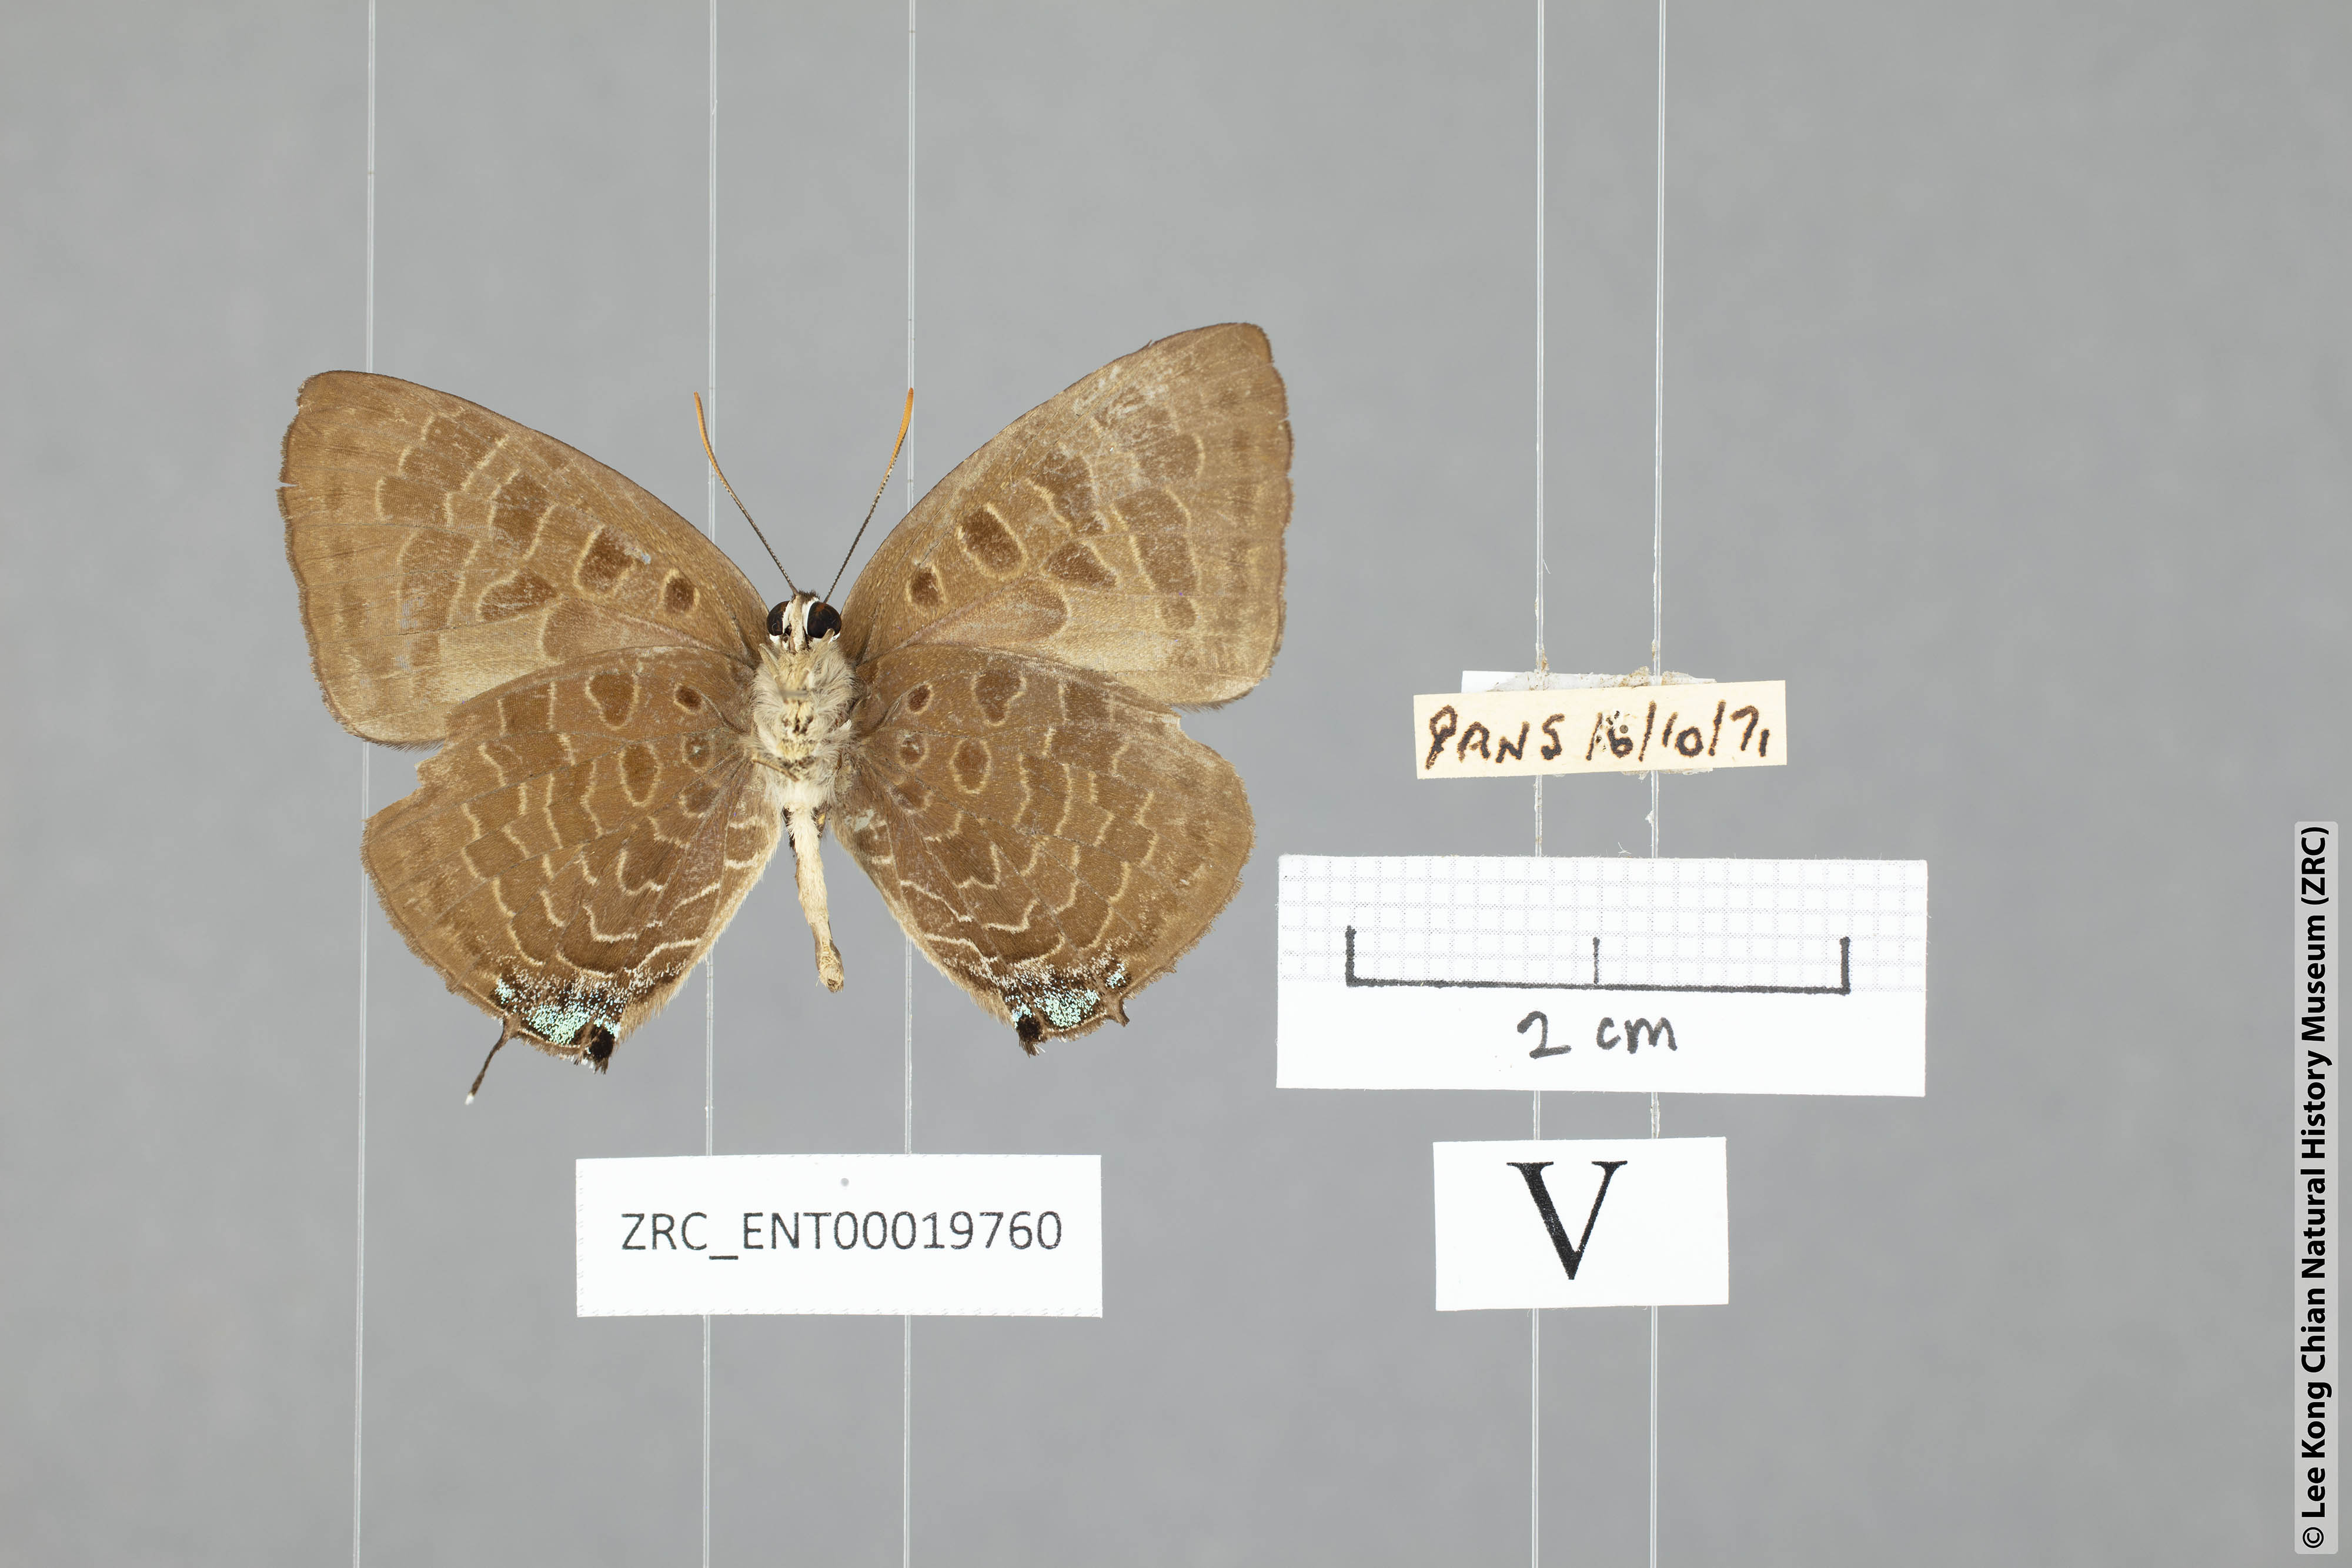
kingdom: Animalia
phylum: Arthropoda
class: Insecta
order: Lepidoptera
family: Lycaenidae
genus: Arhopala
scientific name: Arhopala overdijkinki
